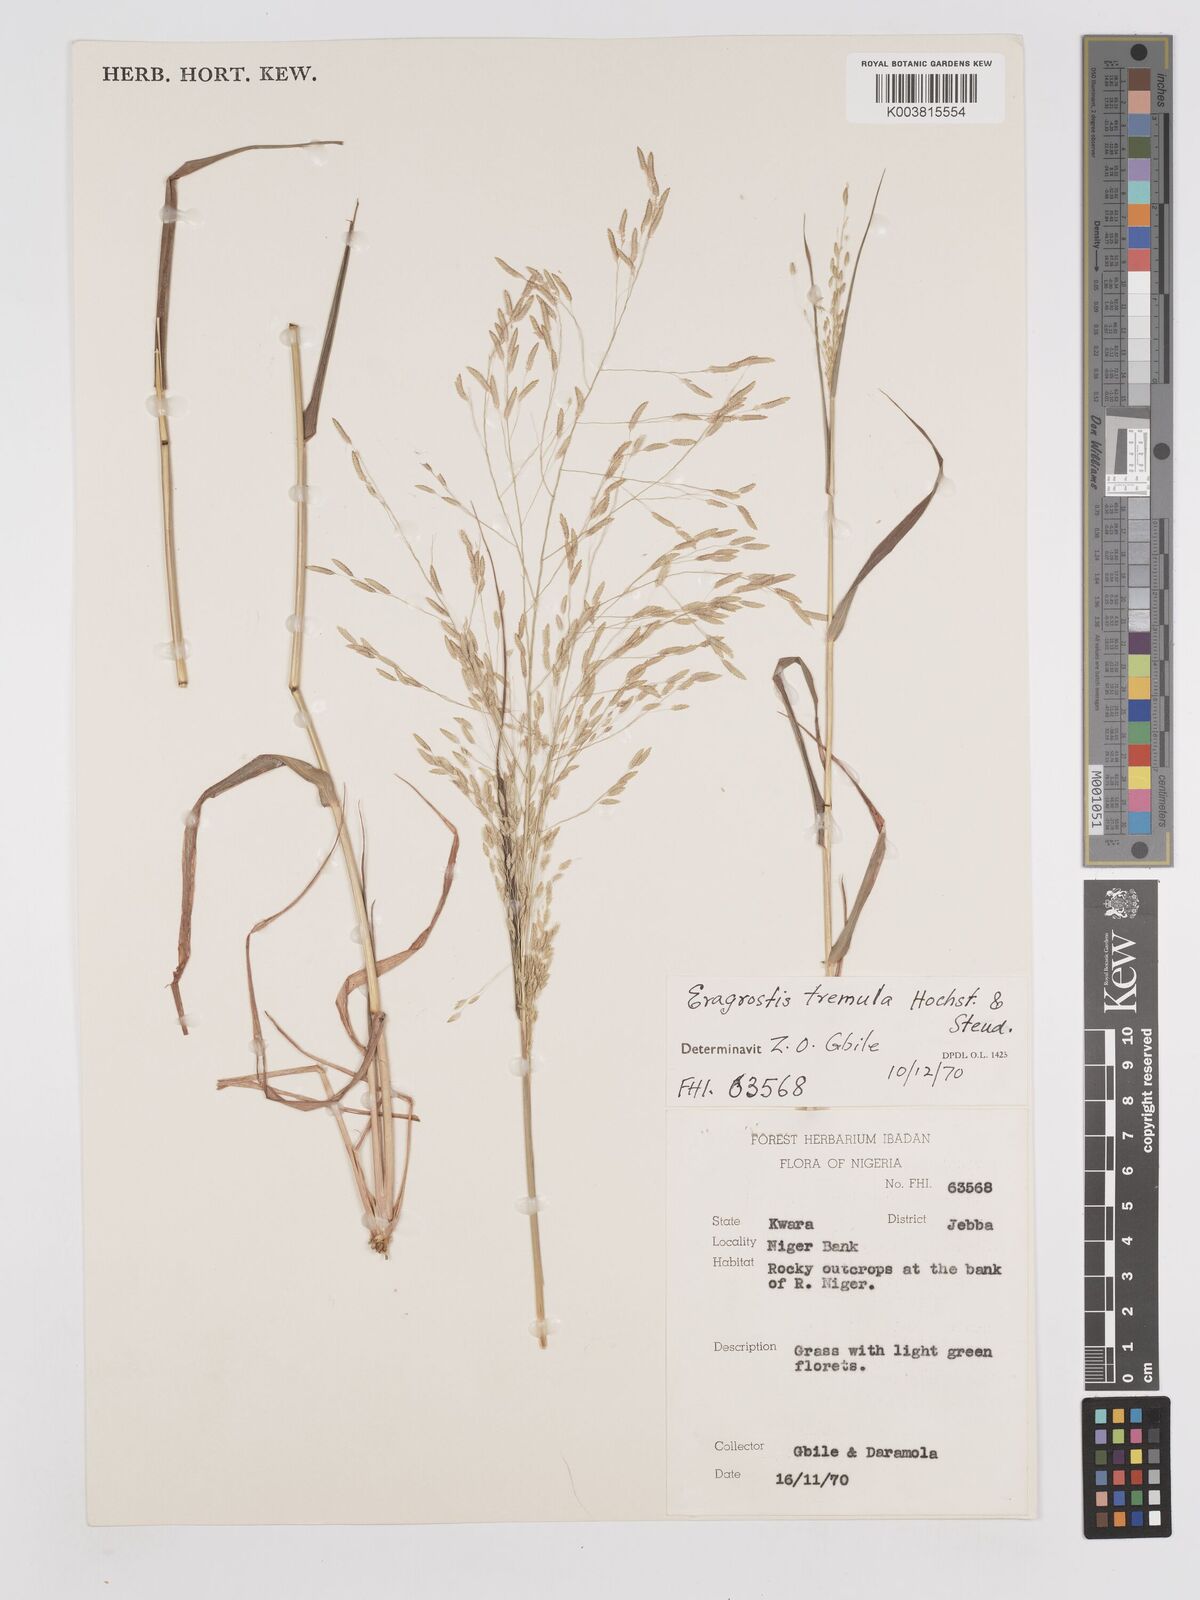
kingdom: Plantae
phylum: Tracheophyta
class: Liliopsida
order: Poales
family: Poaceae
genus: Eragrostis
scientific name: Eragrostis tremula
